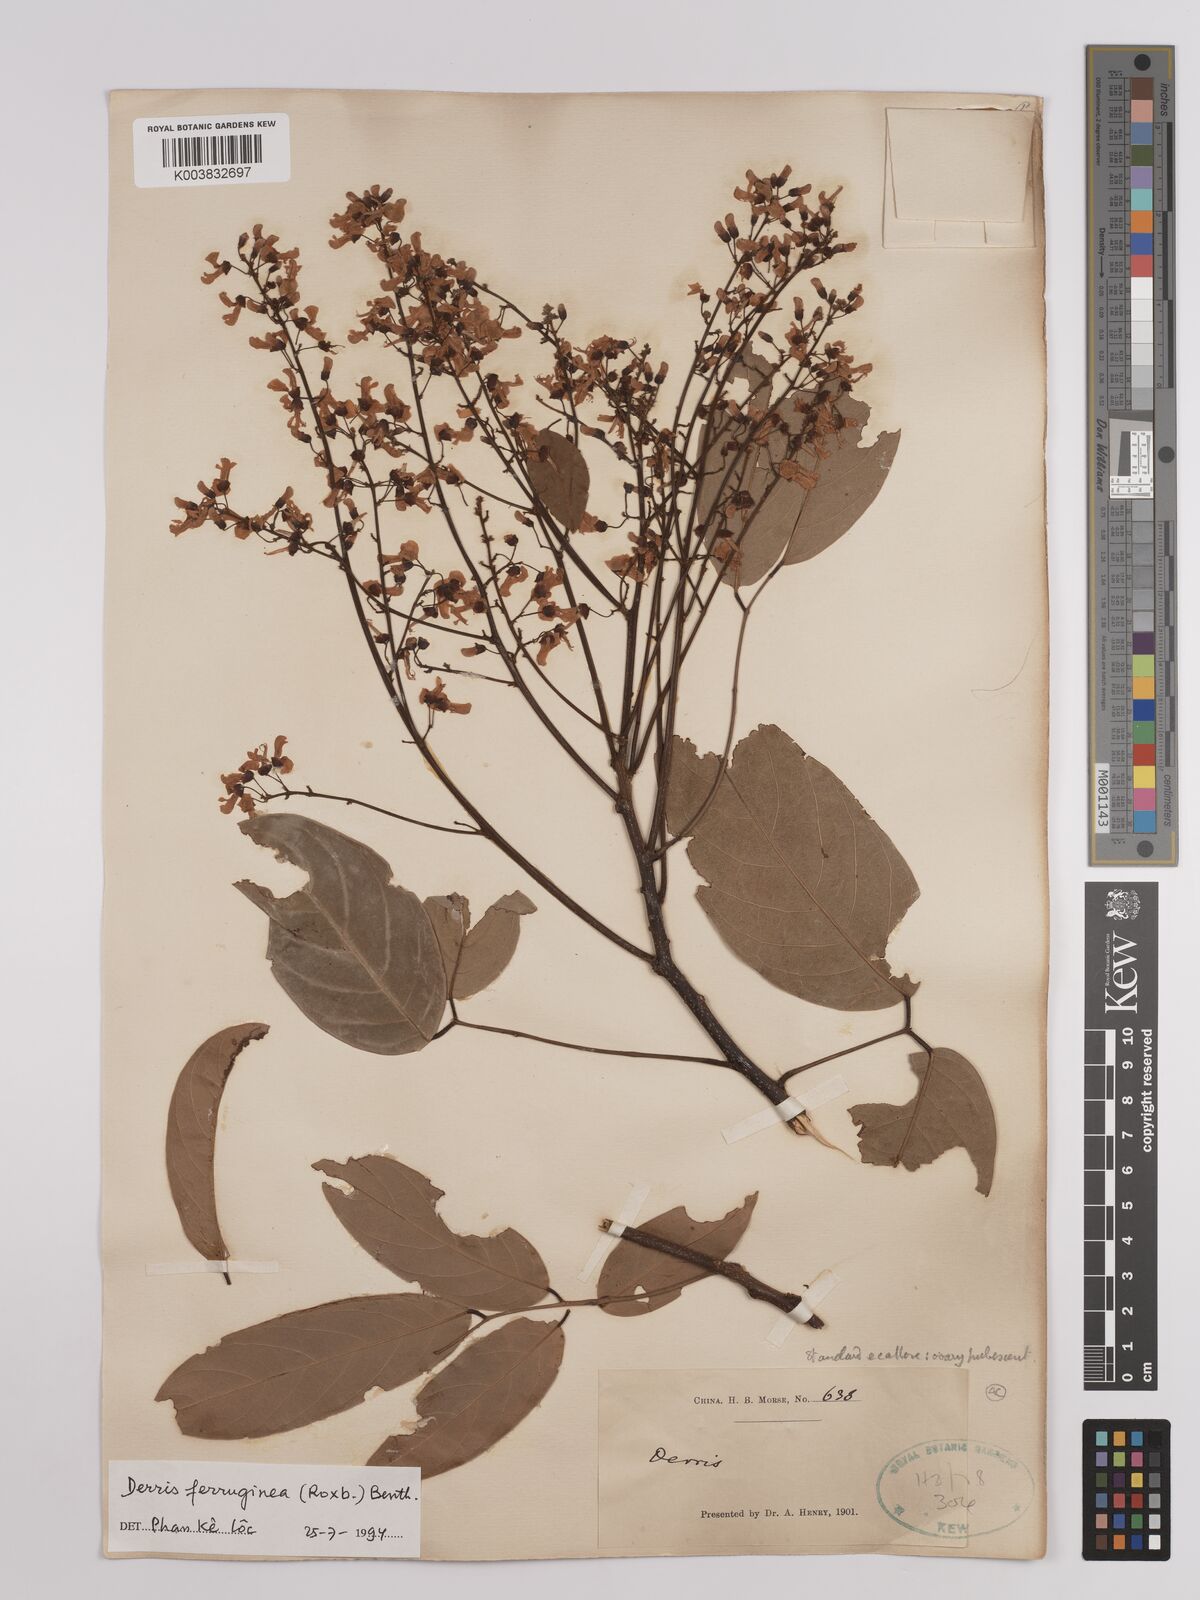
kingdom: Plantae
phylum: Tracheophyta
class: Magnoliopsida
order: Fabales
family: Fabaceae
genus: Derris
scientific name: Derris ferruginea
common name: Indian tubaroot
